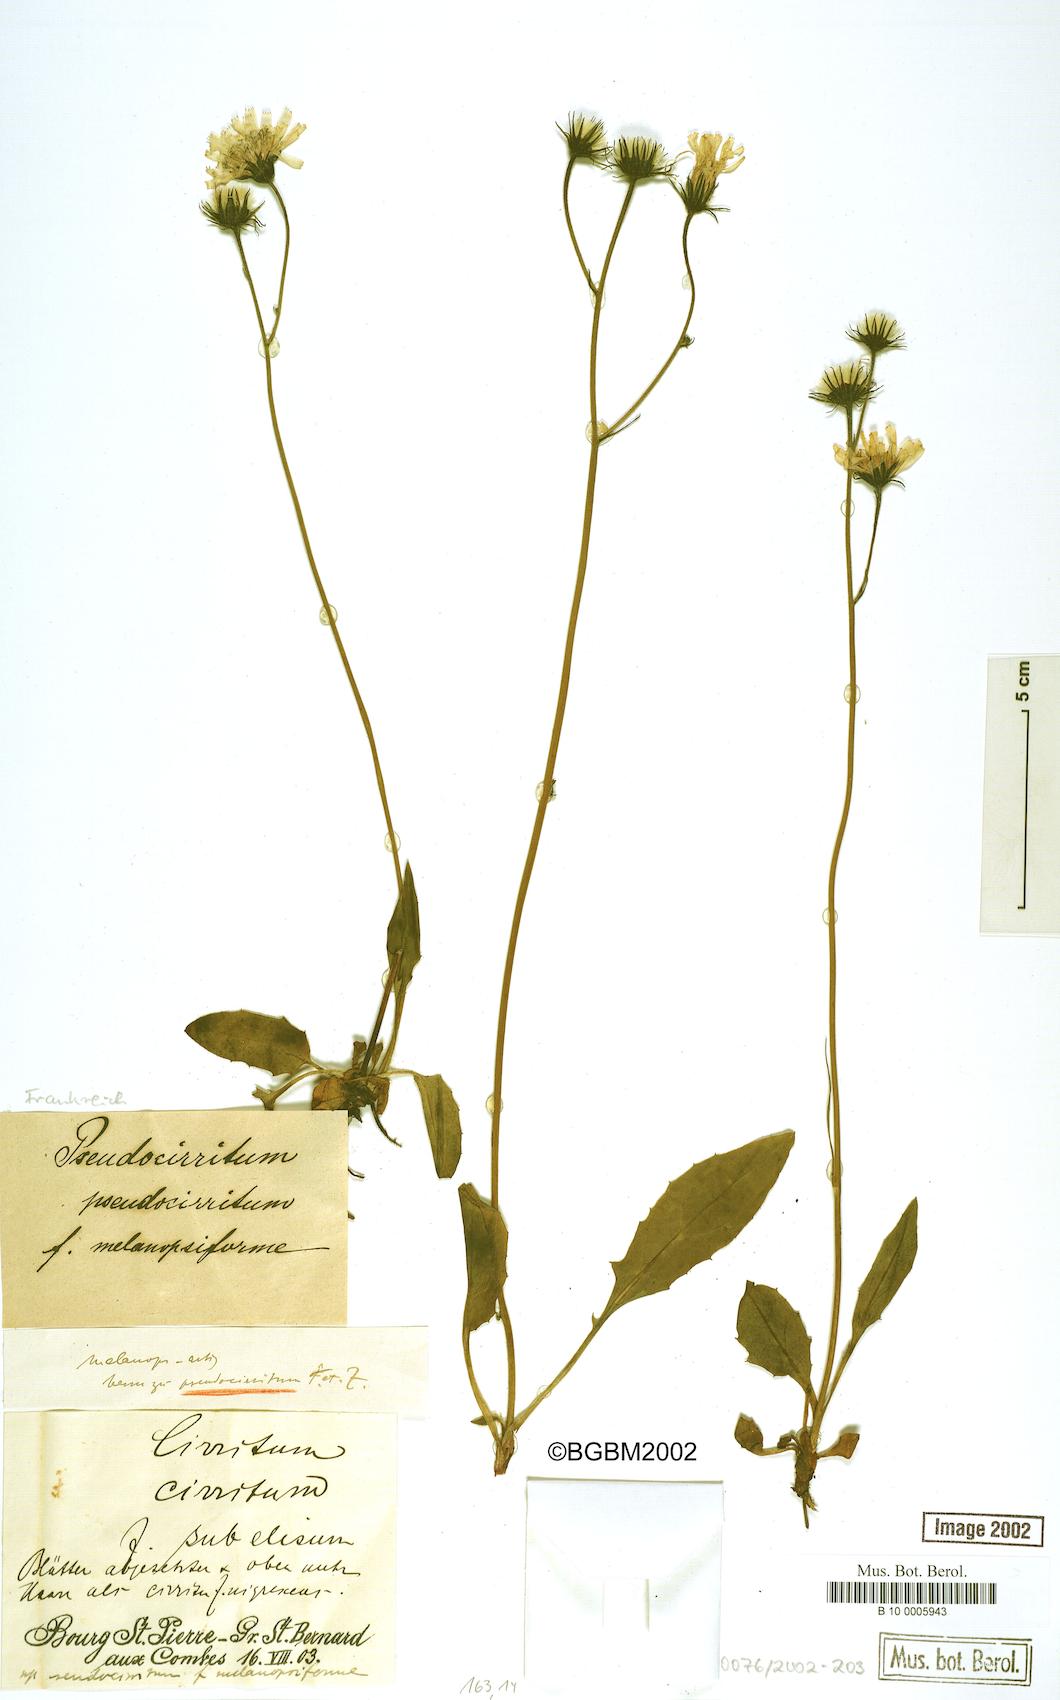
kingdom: Plantae
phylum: Tracheophyta
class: Magnoliopsida
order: Asterales
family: Asteraceae
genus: Hieracium
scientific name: Hieracium cirritum
